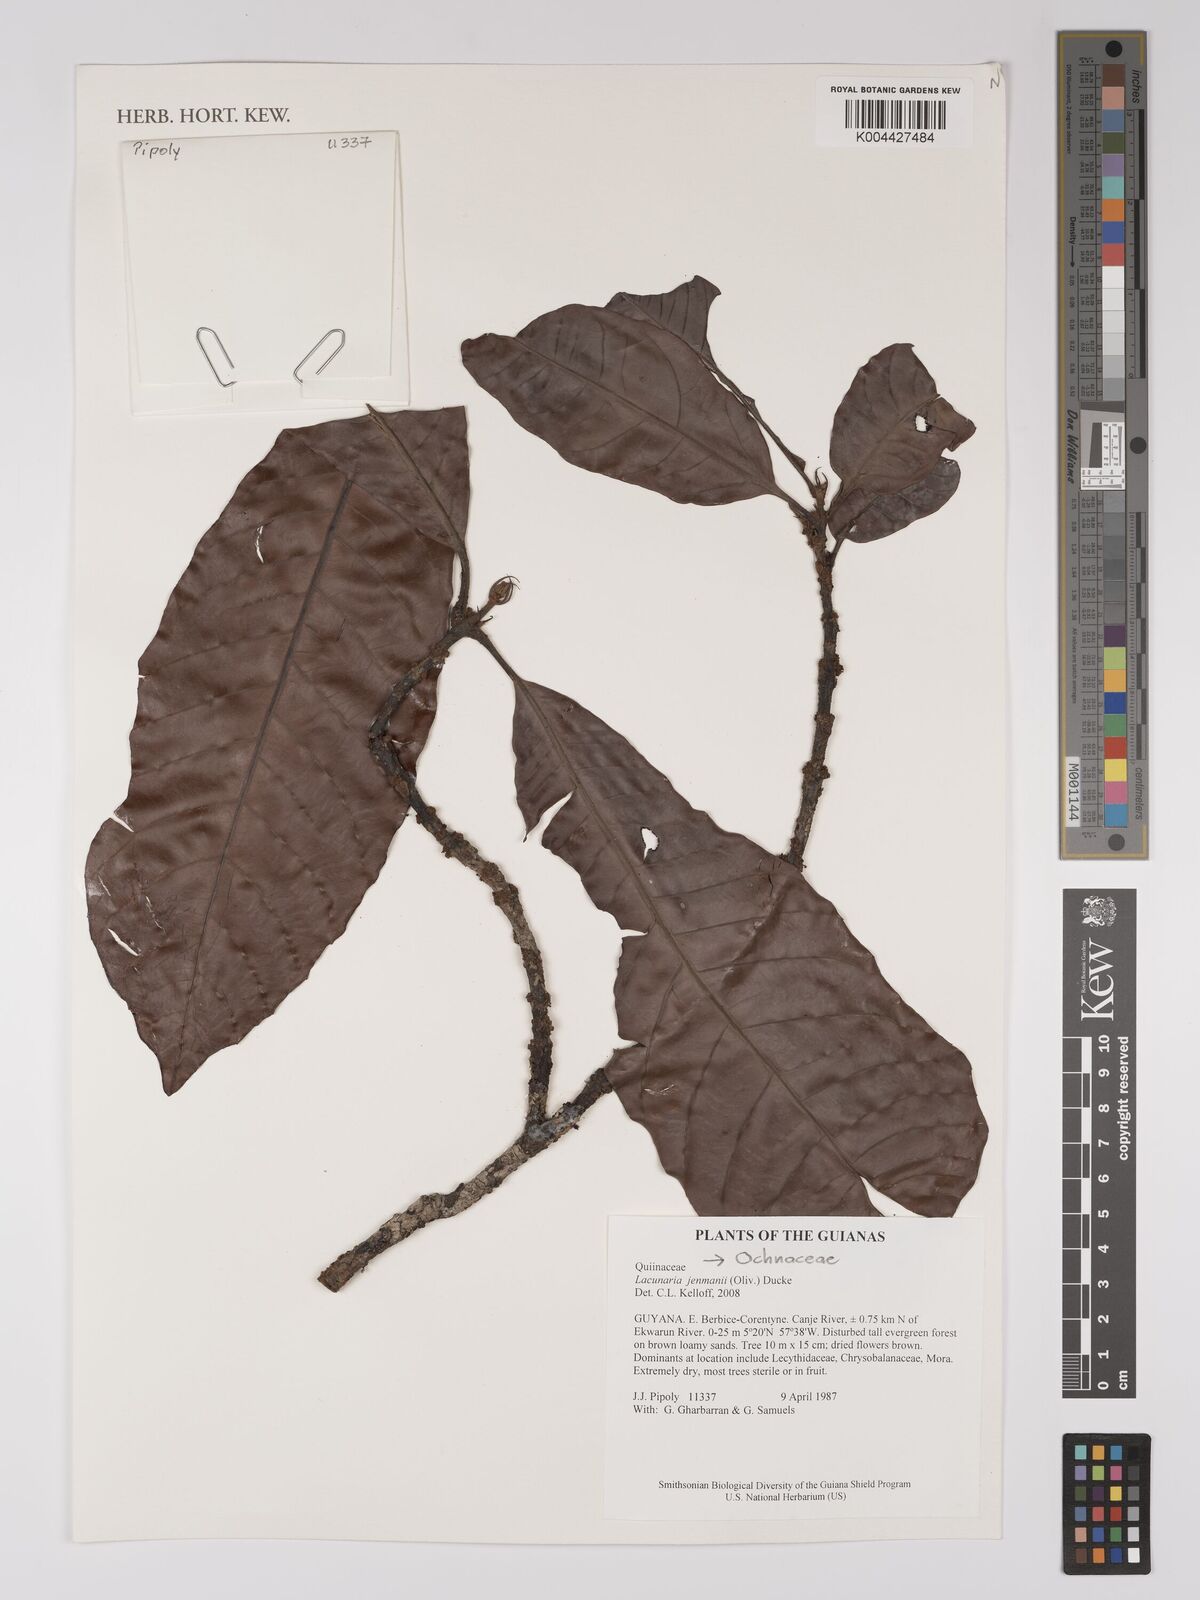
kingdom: Plantae
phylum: Tracheophyta
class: Magnoliopsida
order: Malpighiales
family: Quiinaceae
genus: Lacunaria
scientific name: Lacunaria jenmanii
